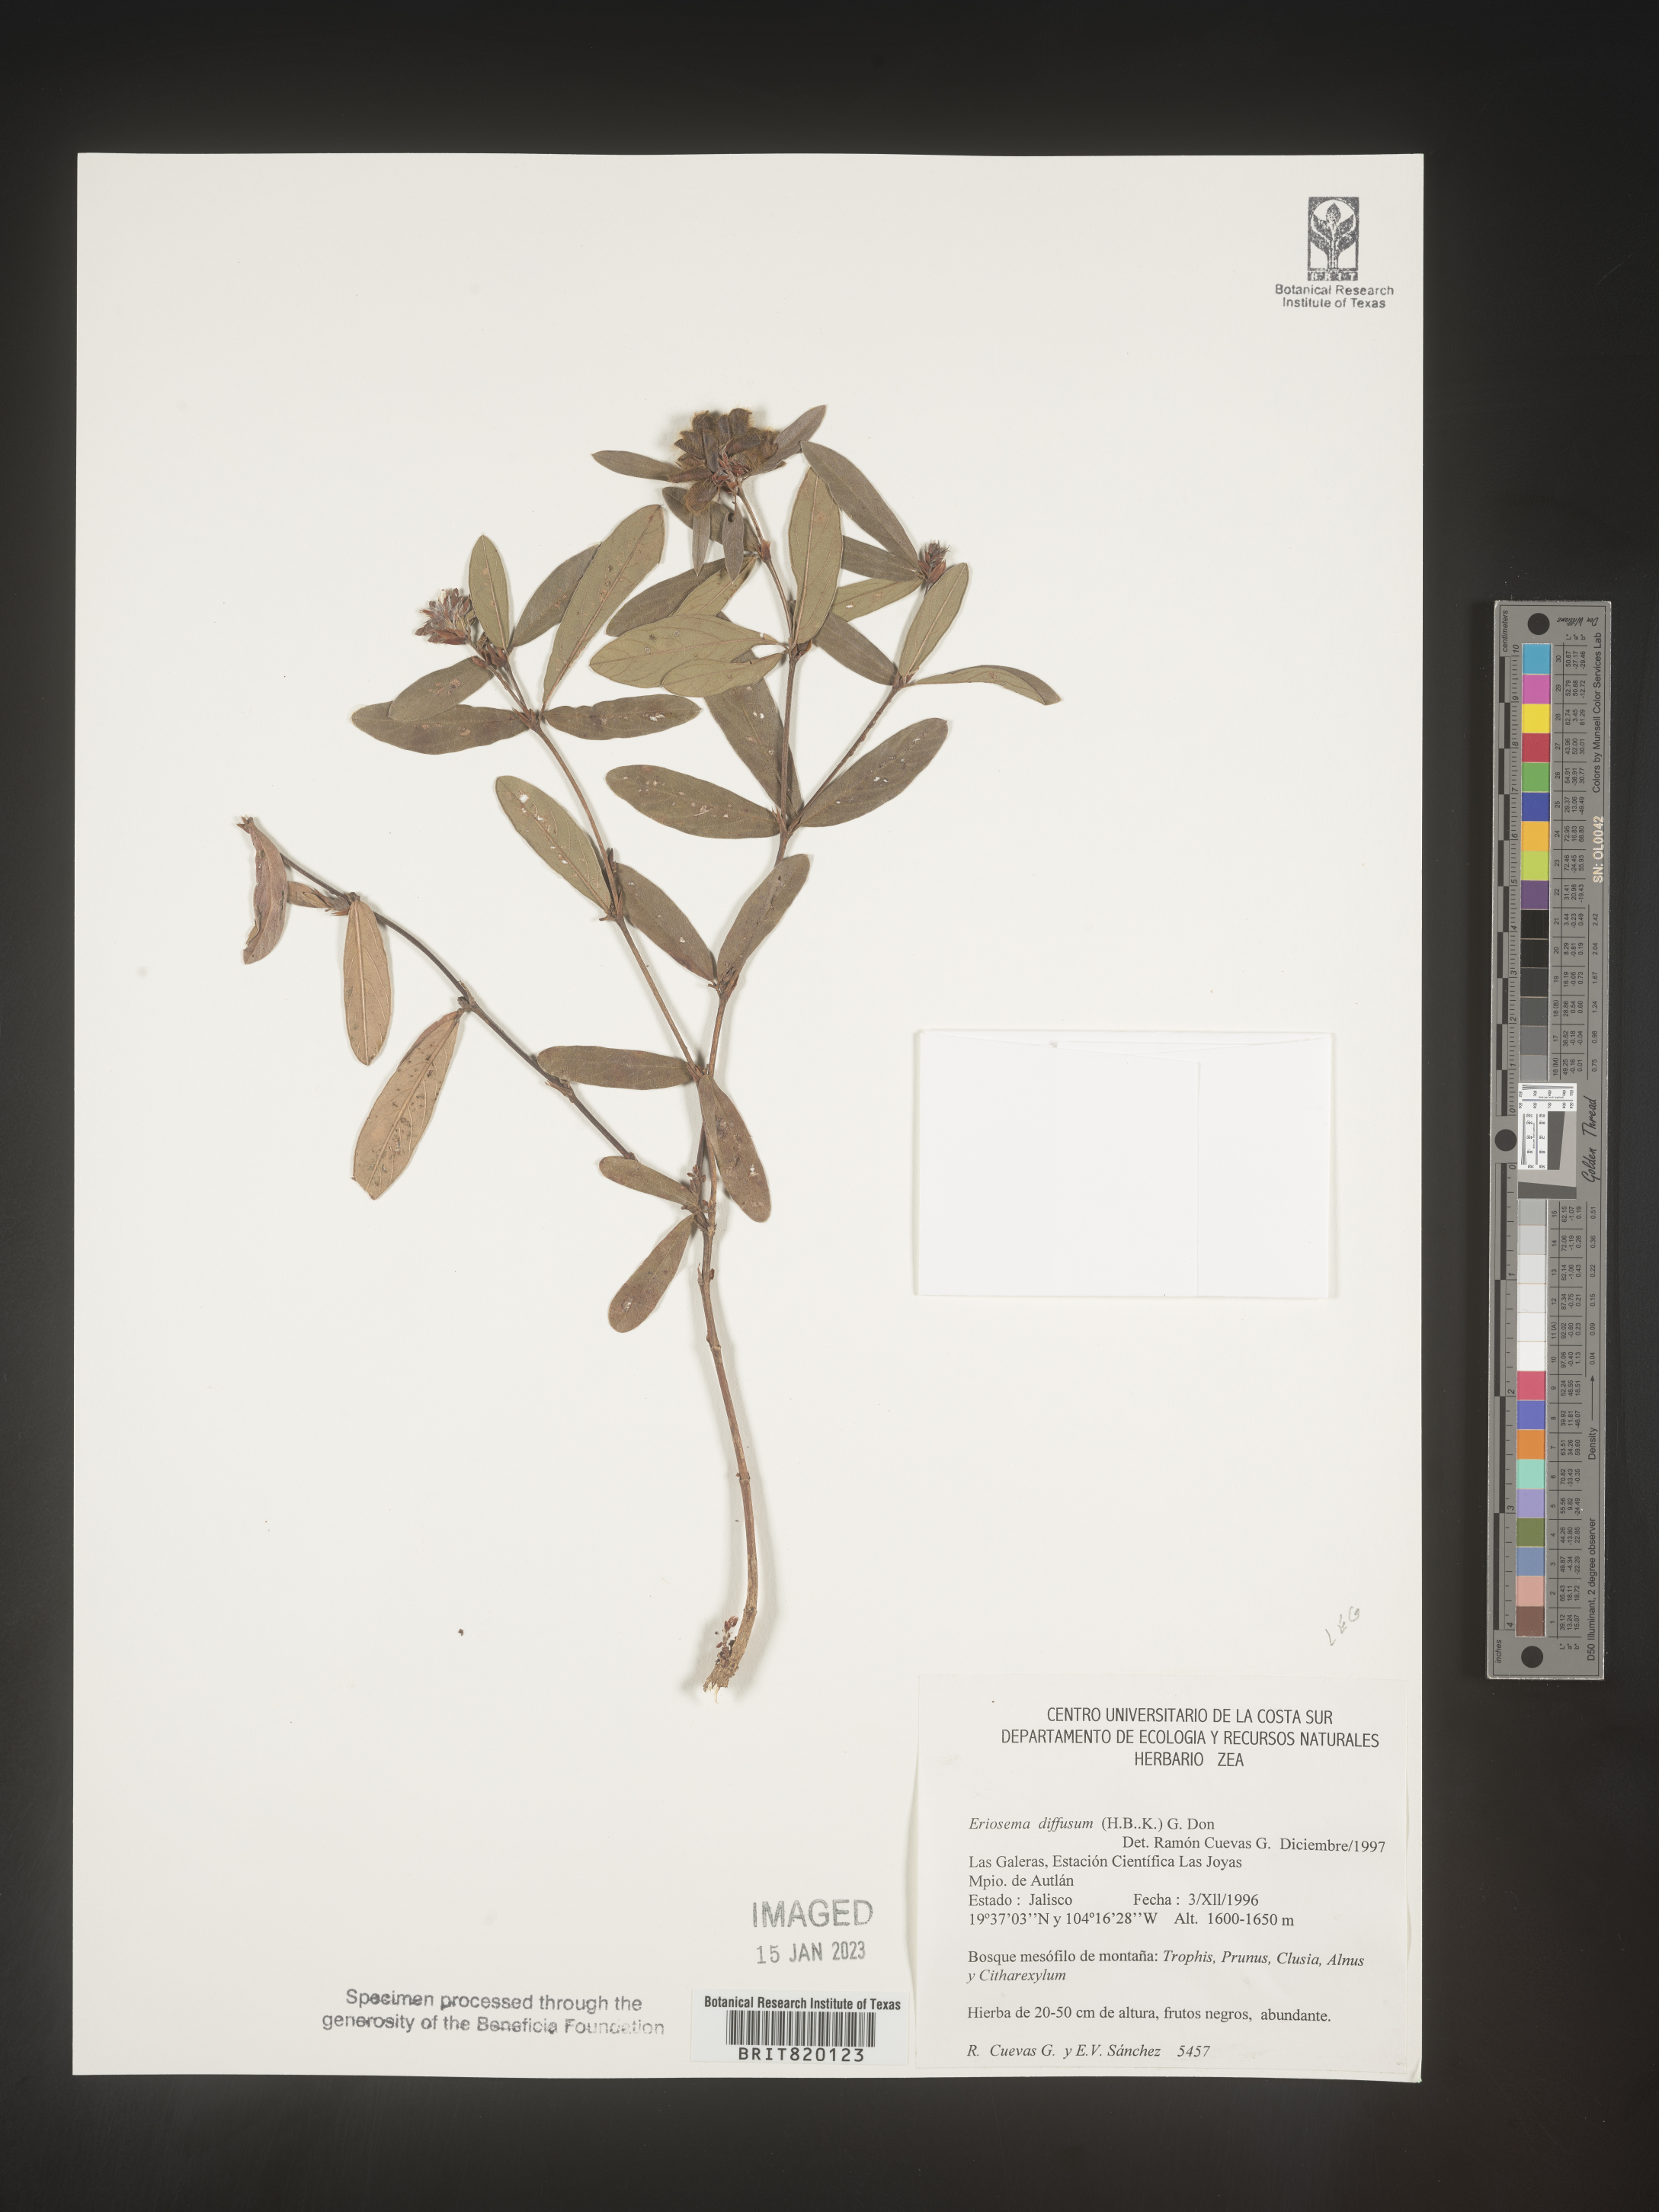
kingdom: Plantae
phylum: Tracheophyta
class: Magnoliopsida
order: Fabales
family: Fabaceae
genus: Eriosema
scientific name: Eriosema
